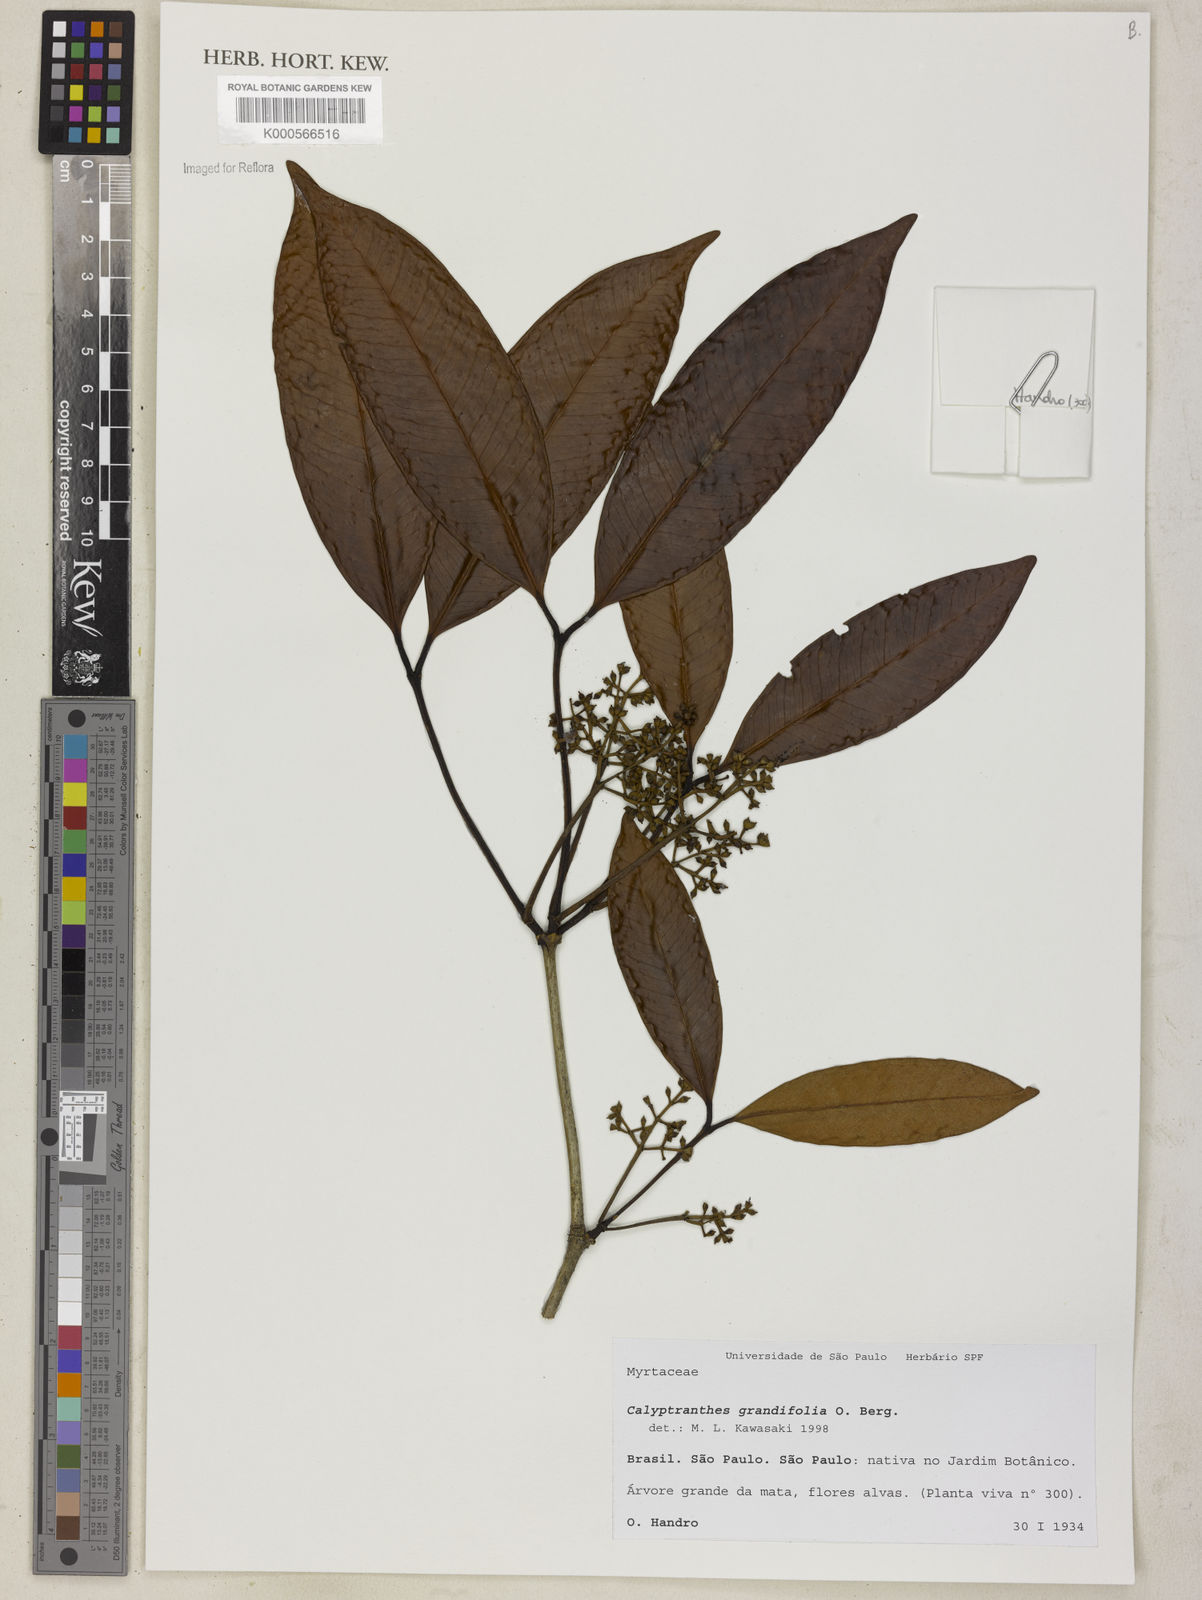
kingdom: Plantae
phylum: Tracheophyta
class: Magnoliopsida
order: Myrtales
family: Myrtaceae
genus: Calyptranthes
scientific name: Calyptranthes grandifolia
